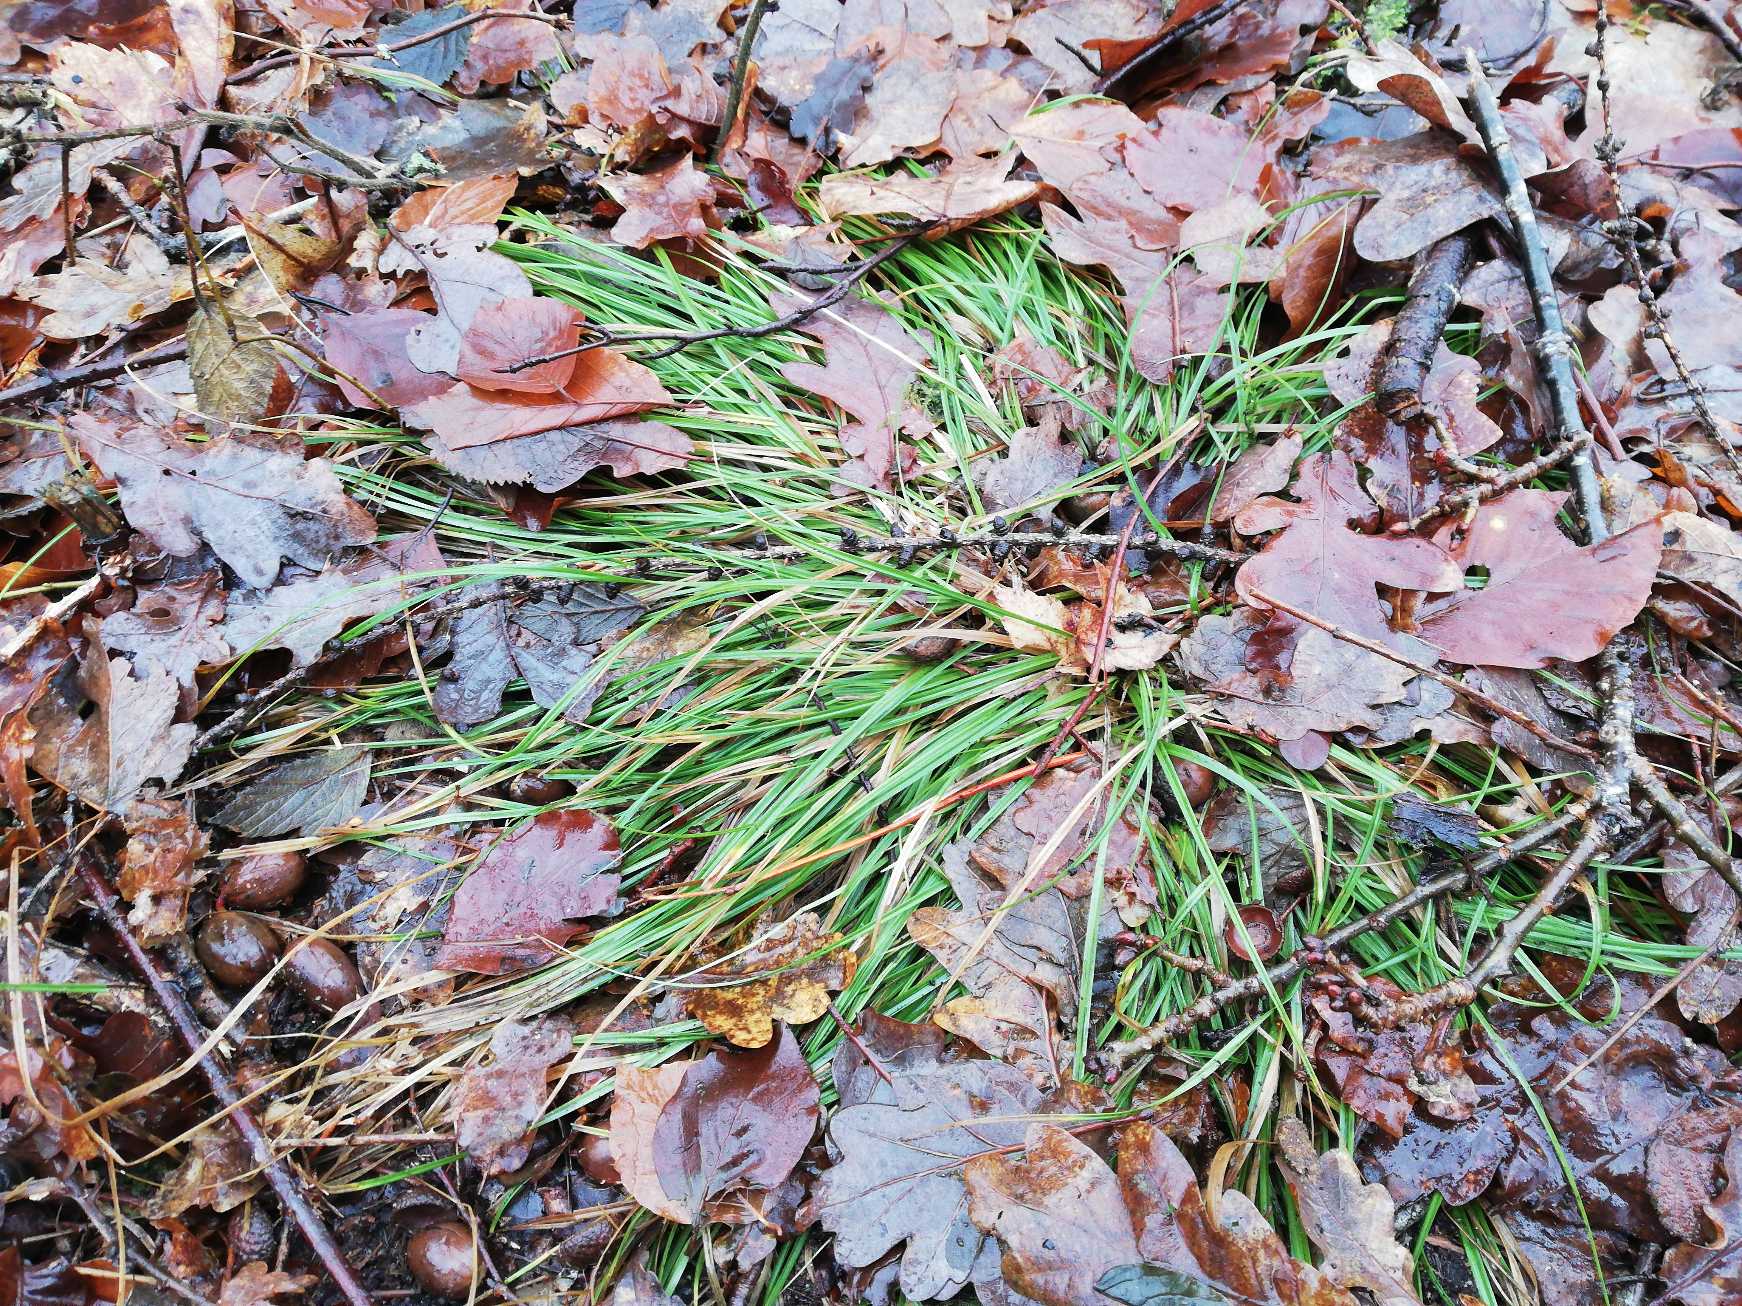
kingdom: Plantae
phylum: Tracheophyta
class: Liliopsida
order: Poales
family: Cyperaceae
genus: Carex
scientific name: Carex pilulifera
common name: Pille-star
